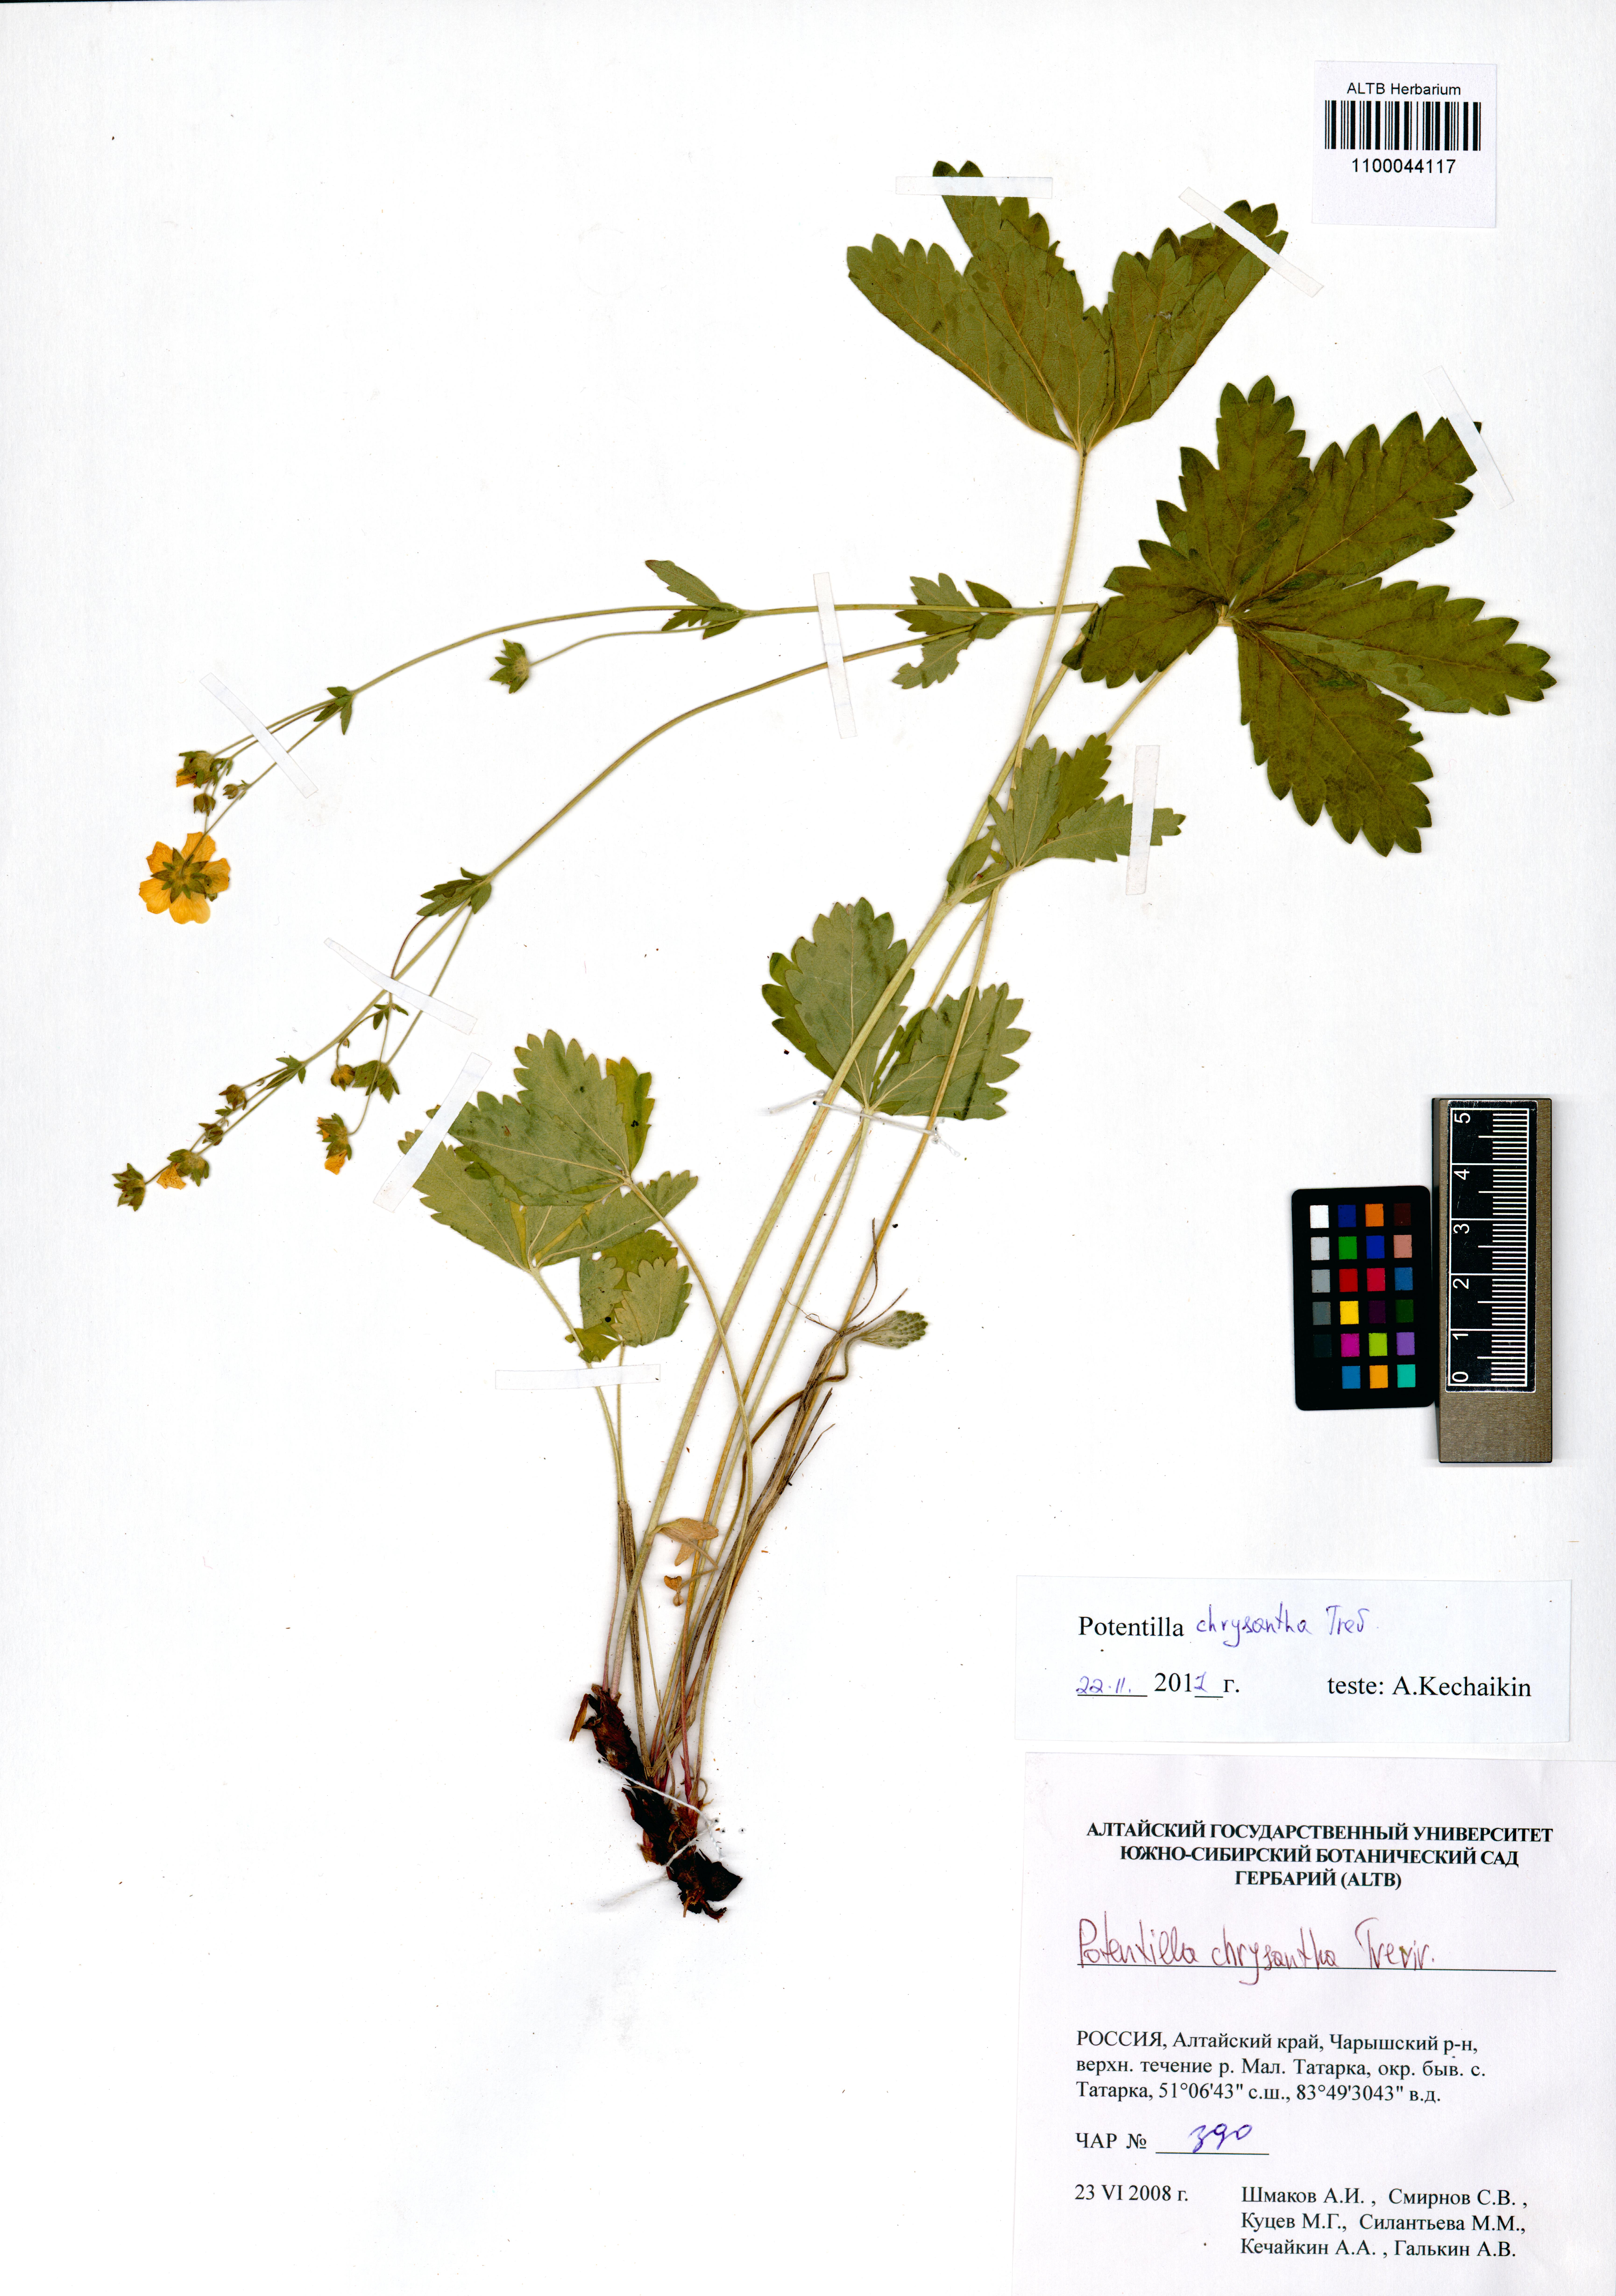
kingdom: Plantae
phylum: Tracheophyta
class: Magnoliopsida
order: Rosales
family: Rosaceae
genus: Potentilla
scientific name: Potentilla chrysantha
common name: Thuringian cinquefoil
